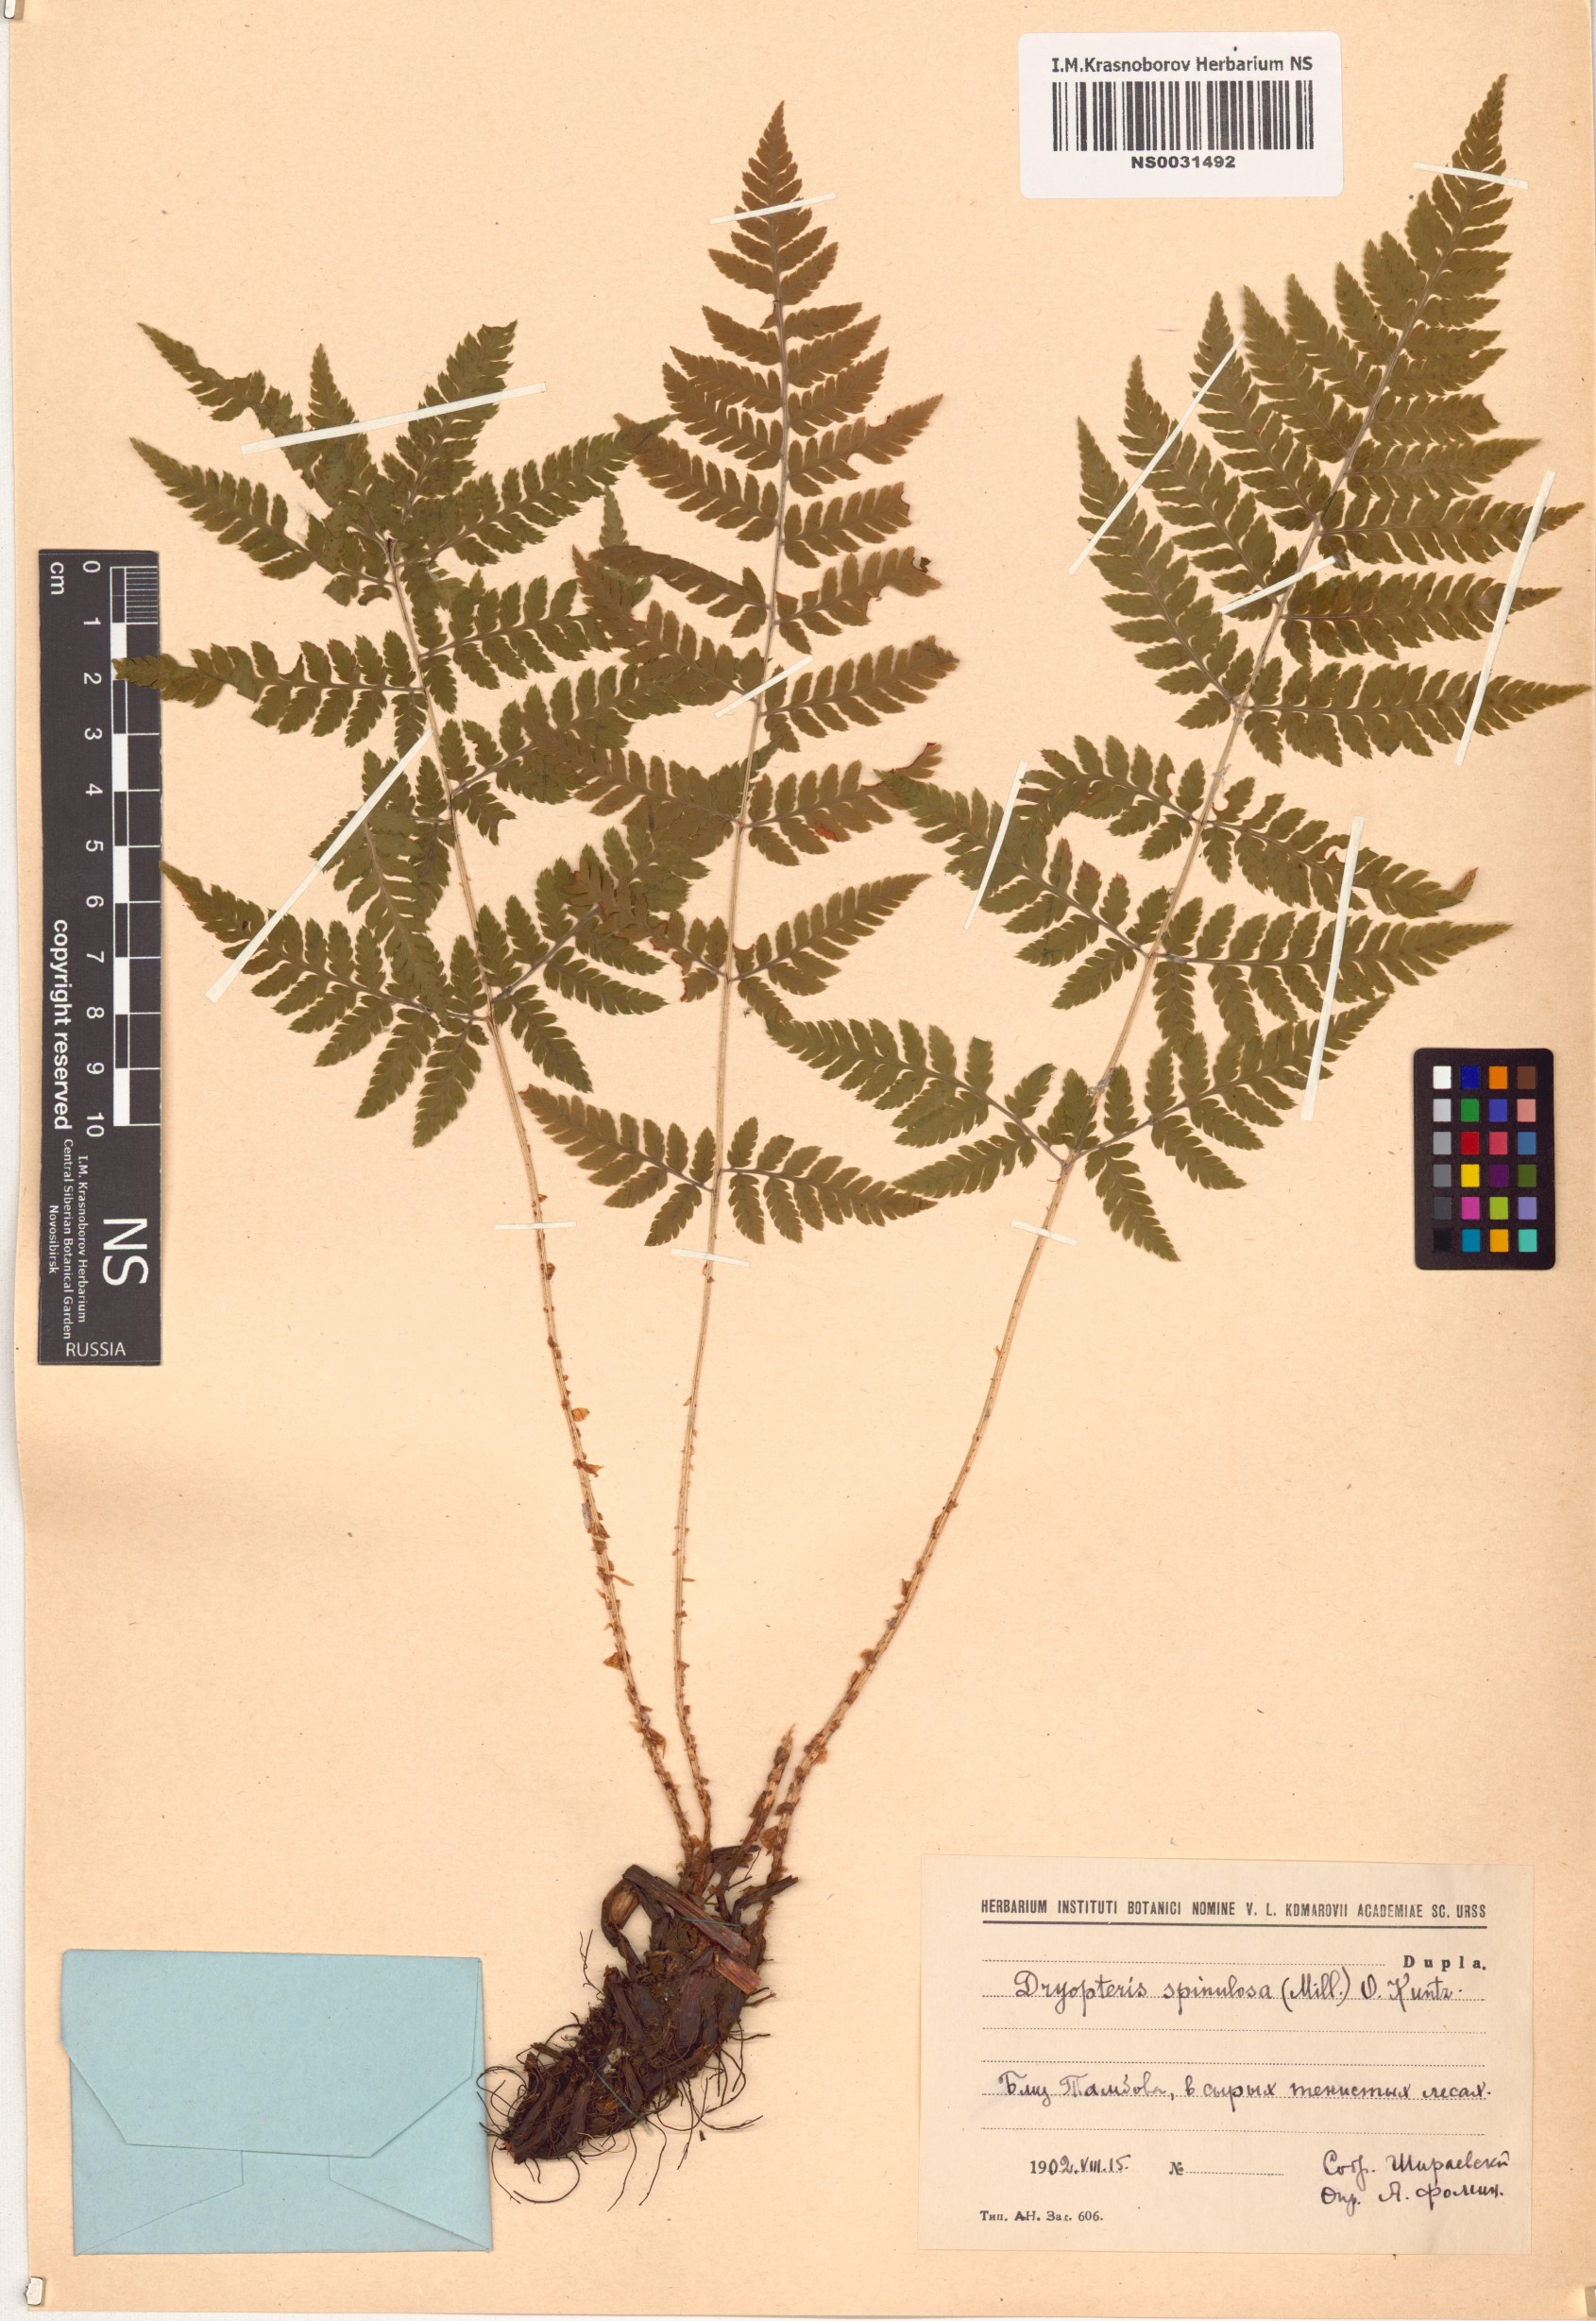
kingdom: Plantae
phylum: Tracheophyta
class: Polypodiopsida
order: Polypodiales
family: Dryopteridaceae
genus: Dryopteris
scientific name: Dryopteris carthusiana
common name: Narrow buckler-fern
